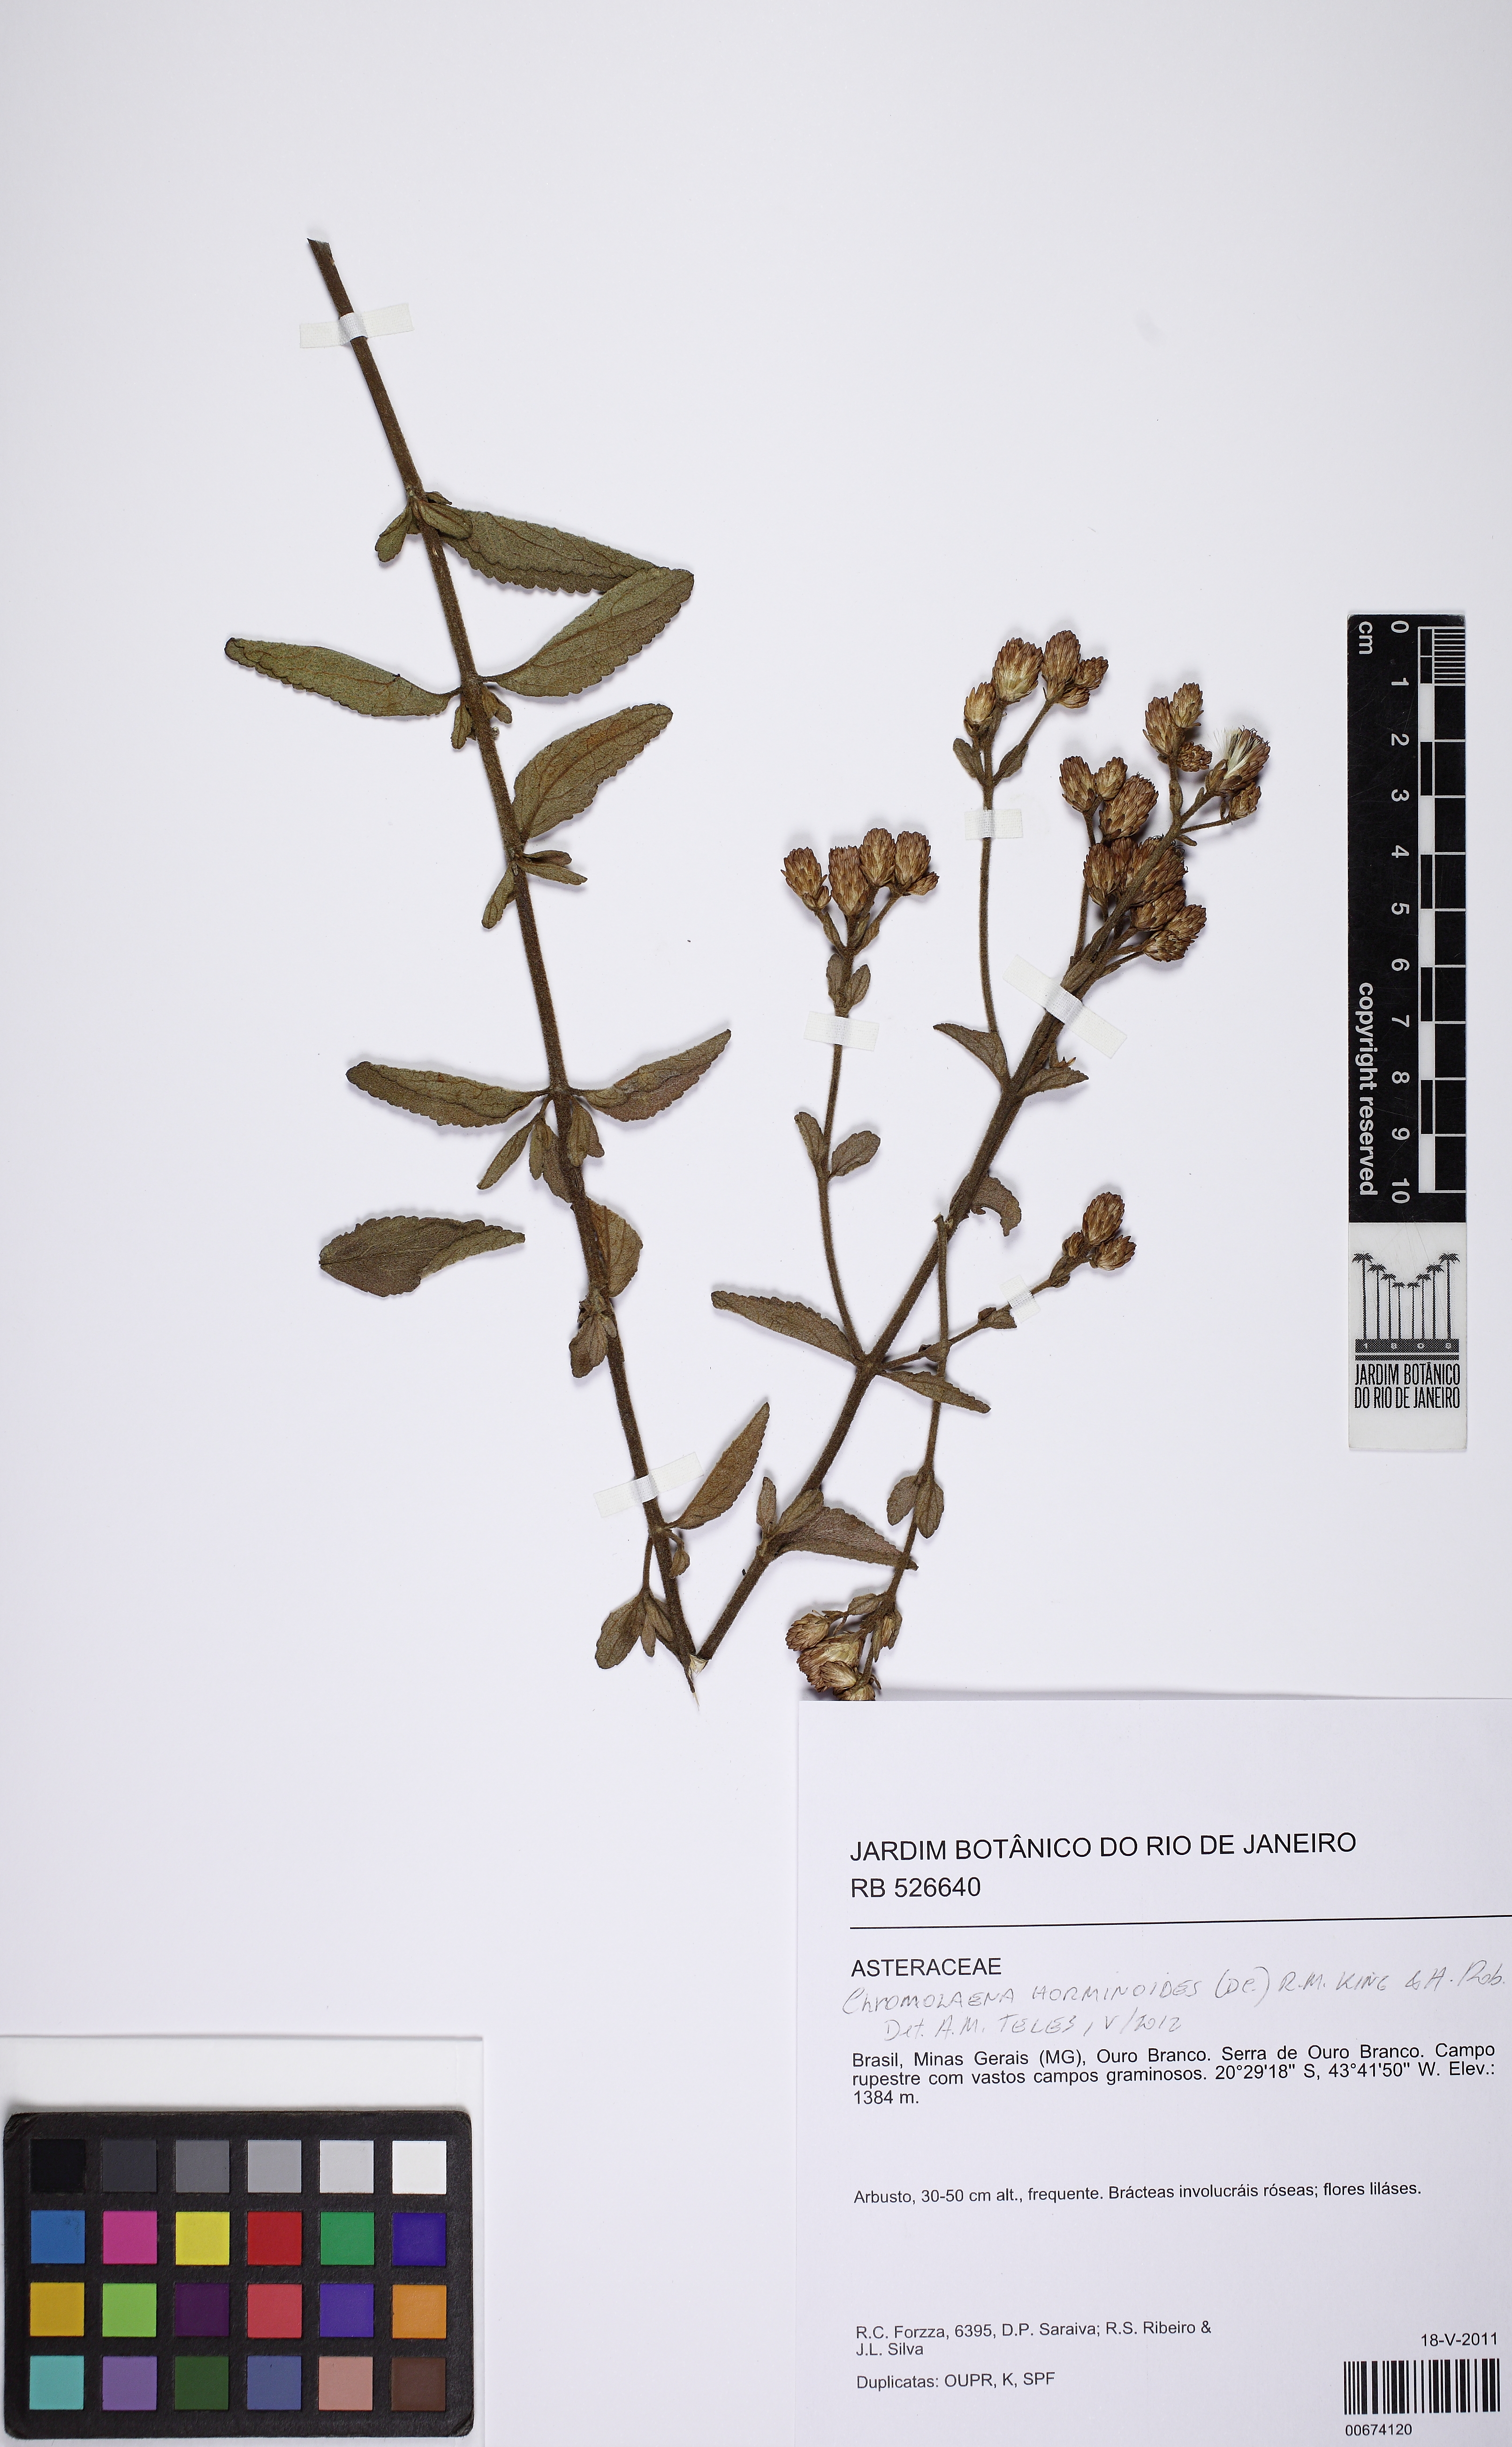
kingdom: Plantae
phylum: Tracheophyta
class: Magnoliopsida
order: Asterales
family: Asteraceae
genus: Chromolaena
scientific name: Chromolaena horminoides
